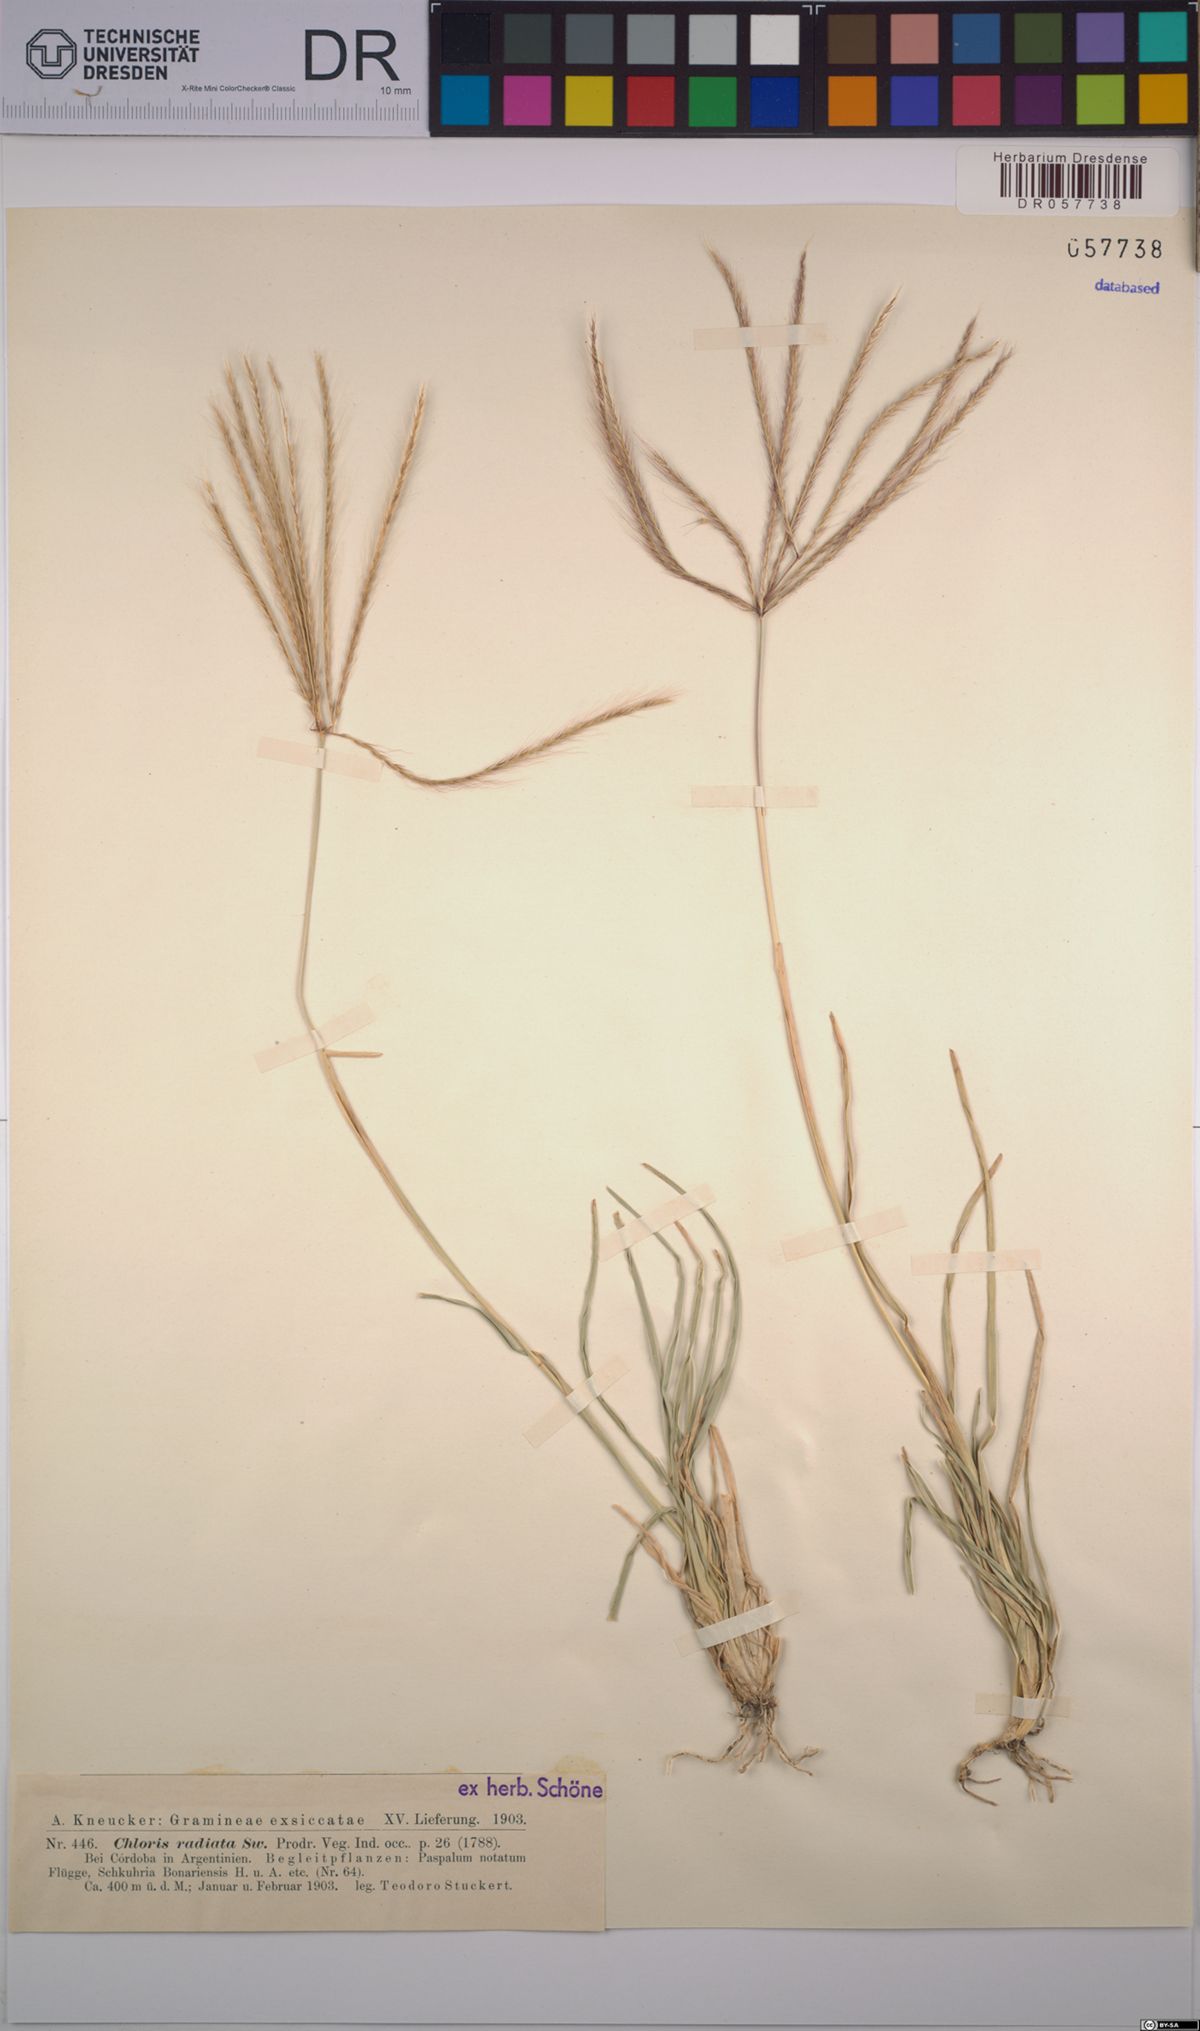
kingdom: Plantae
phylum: Tracheophyta
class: Liliopsida
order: Poales
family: Poaceae
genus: Chloris
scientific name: Chloris radiata
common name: Radiate fingergrass
